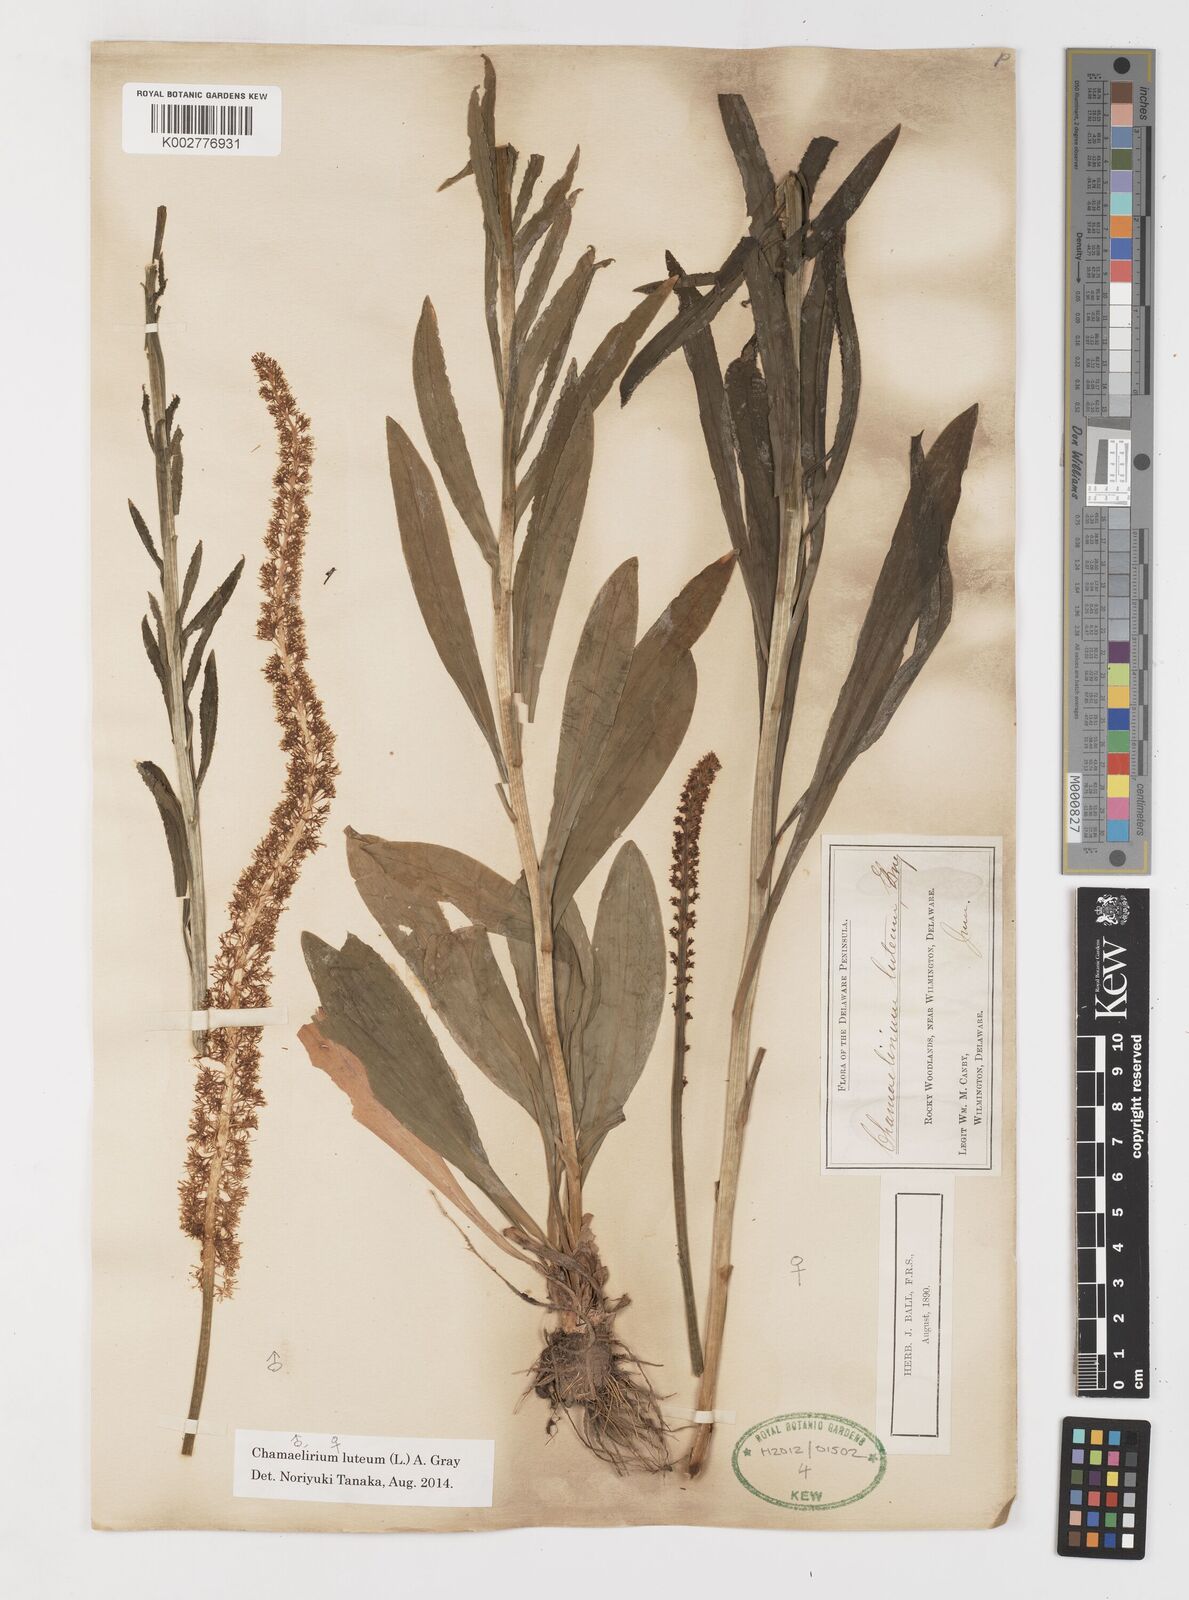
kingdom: Plantae
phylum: Tracheophyta
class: Liliopsida
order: Liliales
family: Melanthiaceae
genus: Chamaelirium
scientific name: Chamaelirium luteum
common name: Fairy-wand
